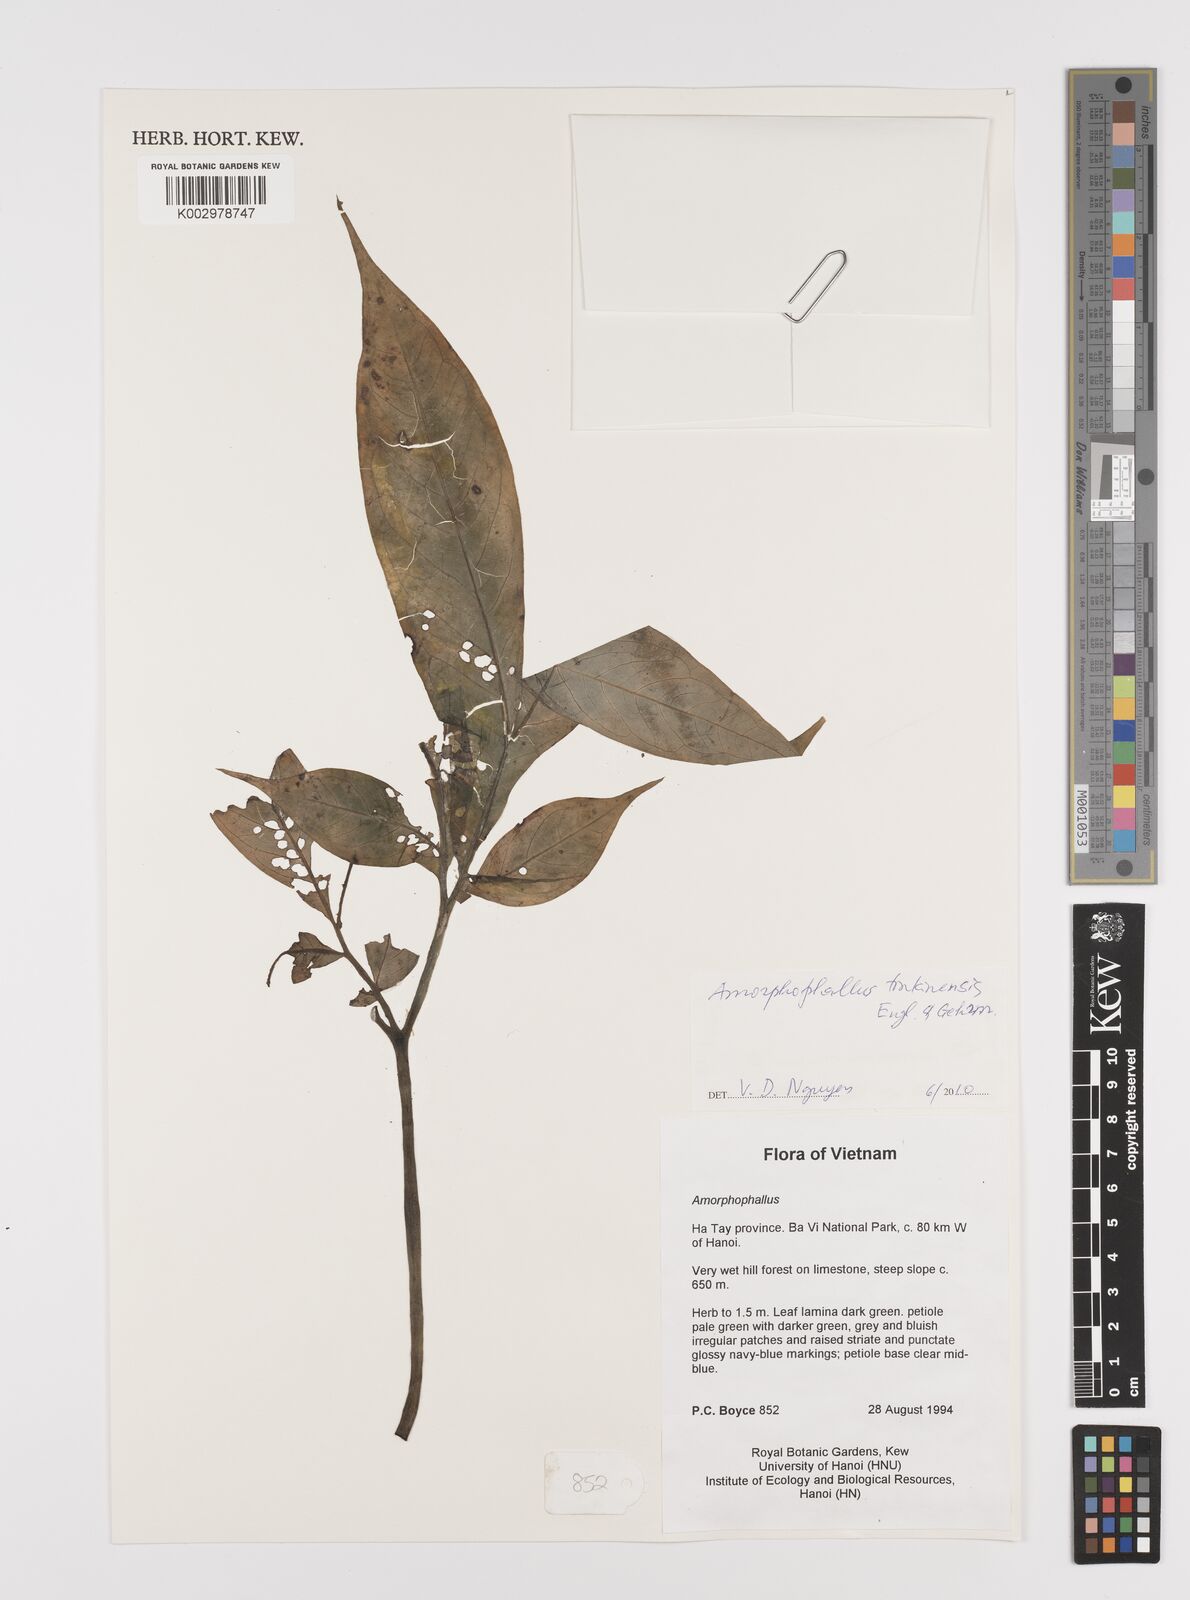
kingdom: Plantae
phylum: Tracheophyta
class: Liliopsida
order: Alismatales
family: Araceae
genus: Amorphophallus
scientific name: Amorphophallus tonkinensis
